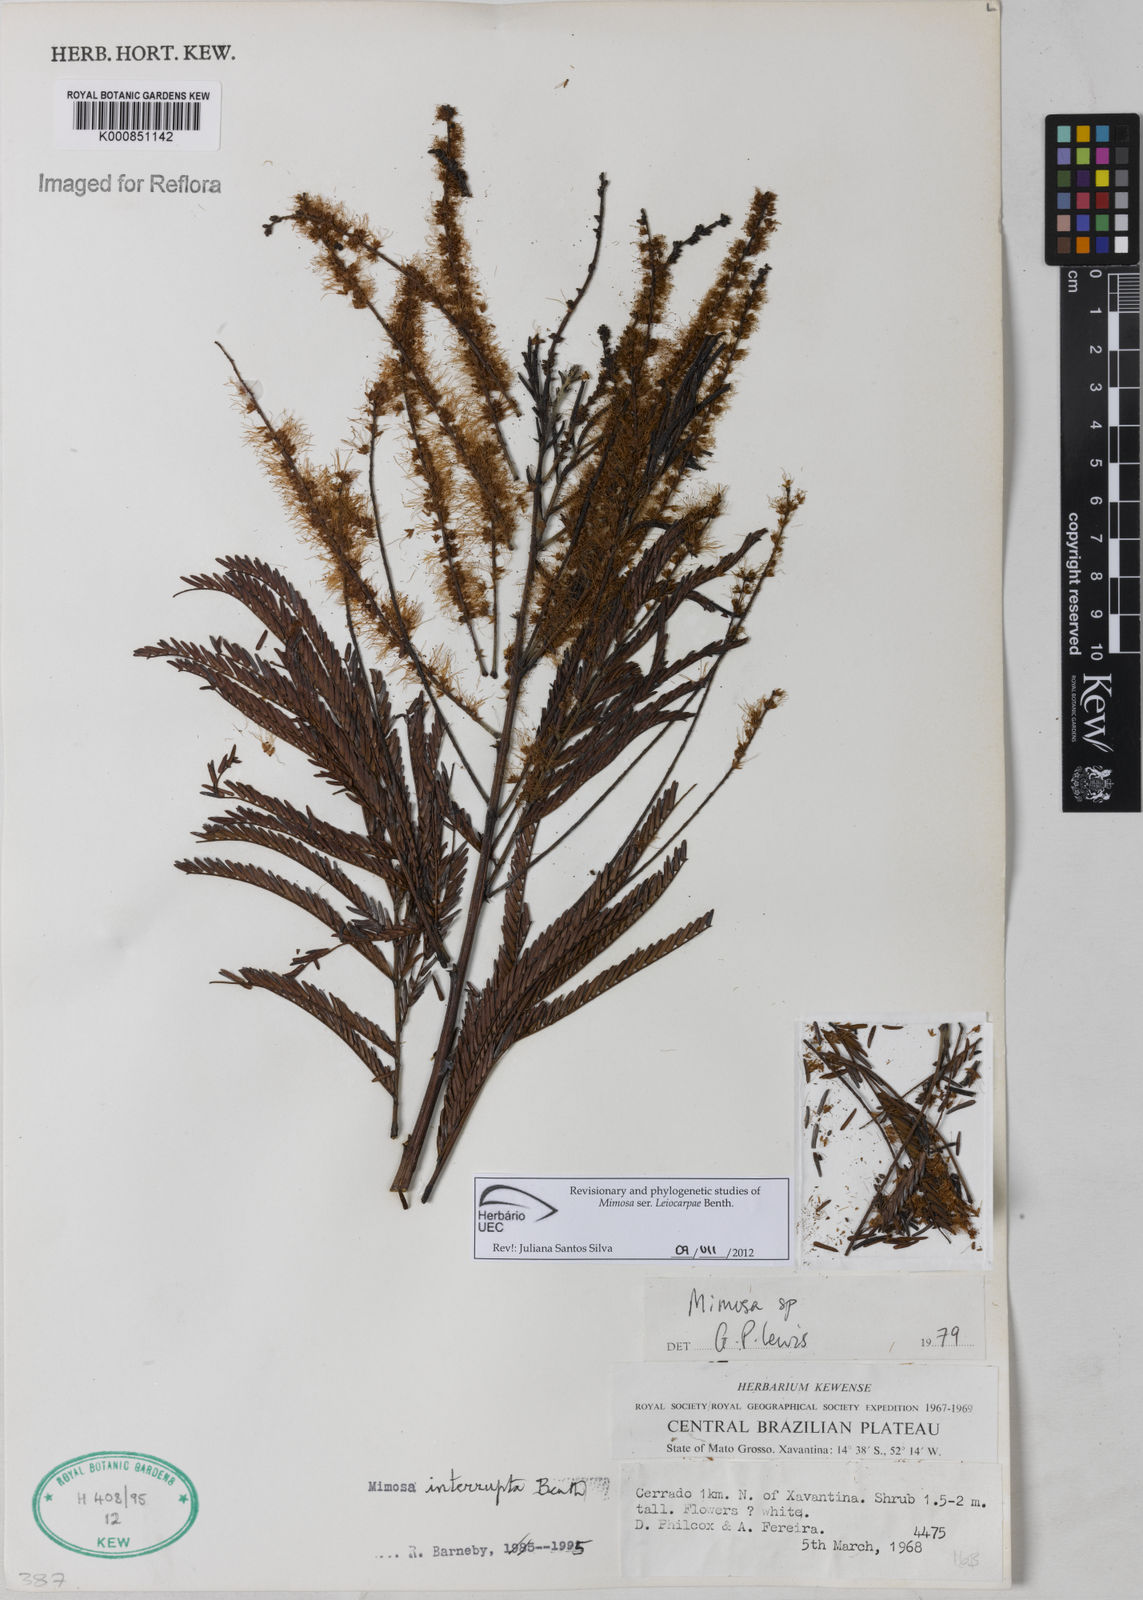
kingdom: Plantae
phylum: Tracheophyta
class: Magnoliopsida
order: Fabales
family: Fabaceae
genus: Mimosa
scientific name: Mimosa interrupta
